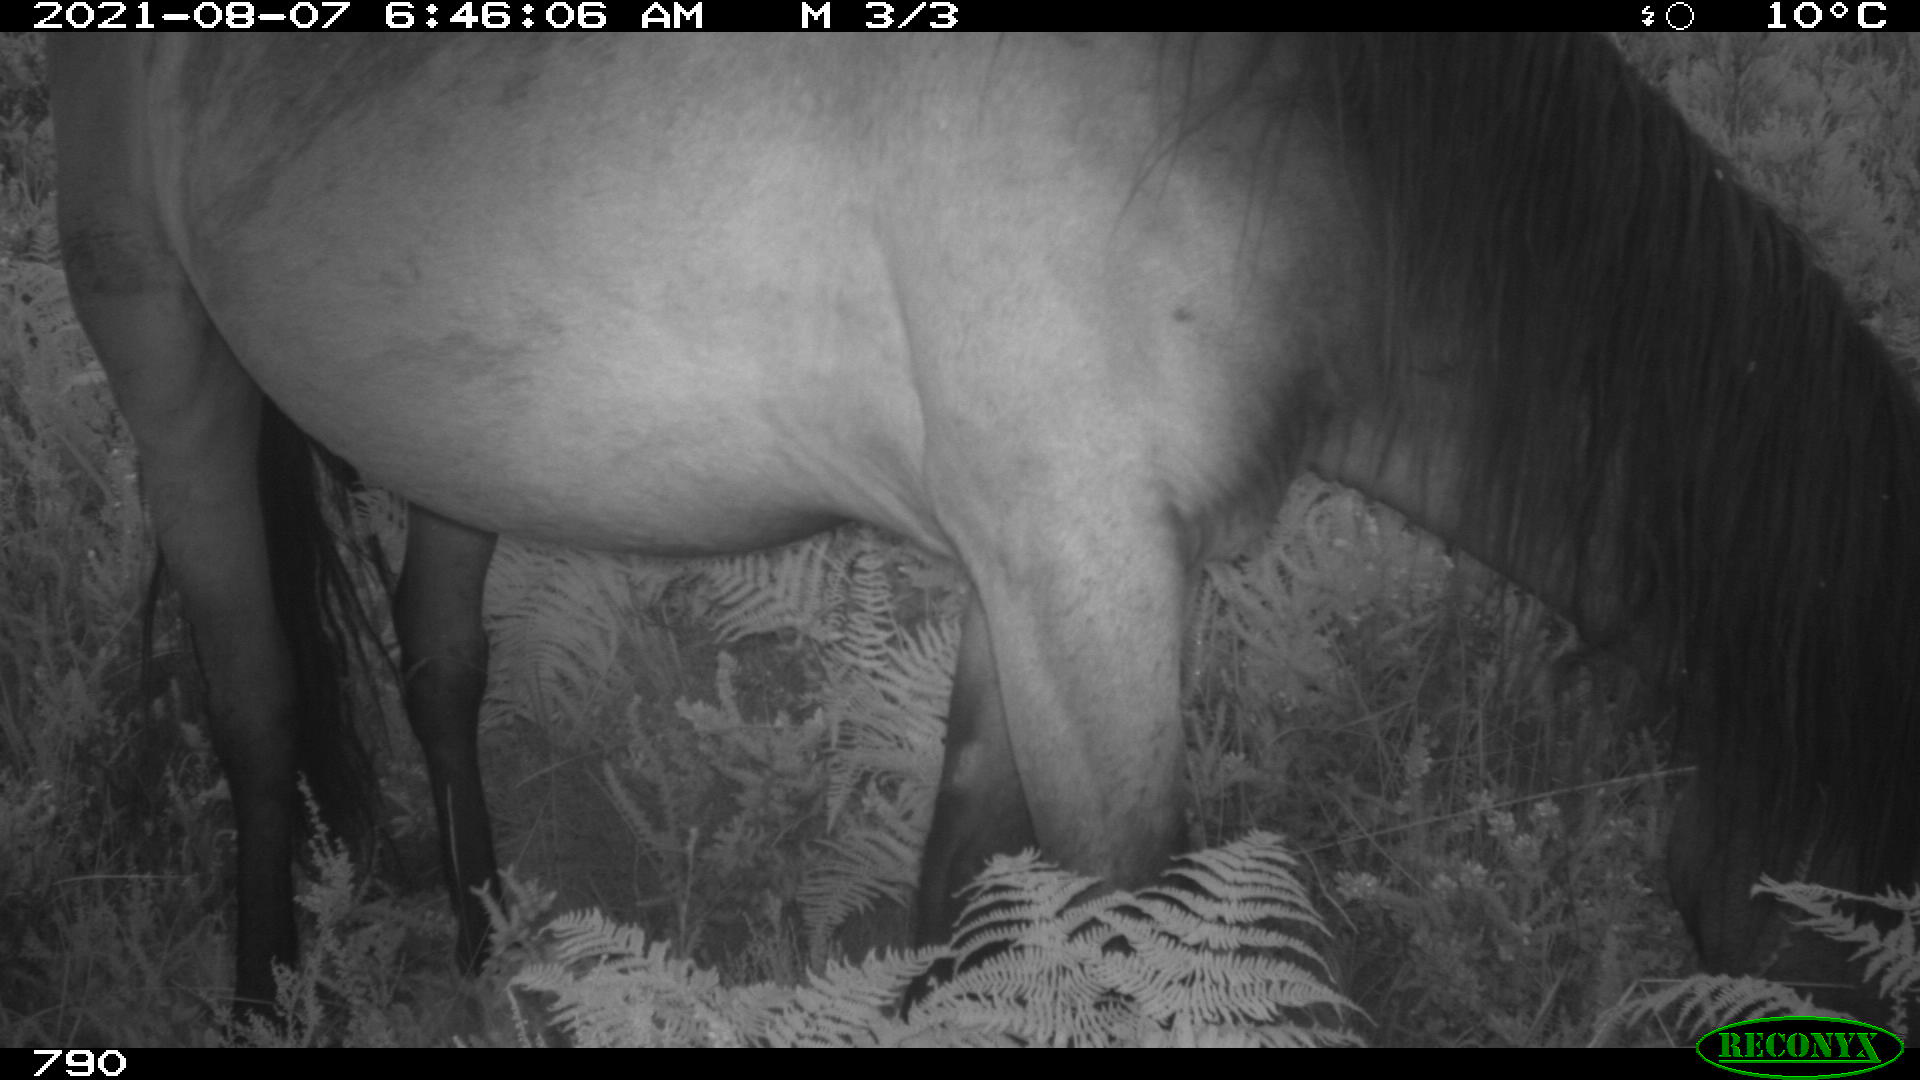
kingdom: Animalia
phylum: Chordata
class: Mammalia
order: Perissodactyla
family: Equidae
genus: Equus
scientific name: Equus caballus
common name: Horse
